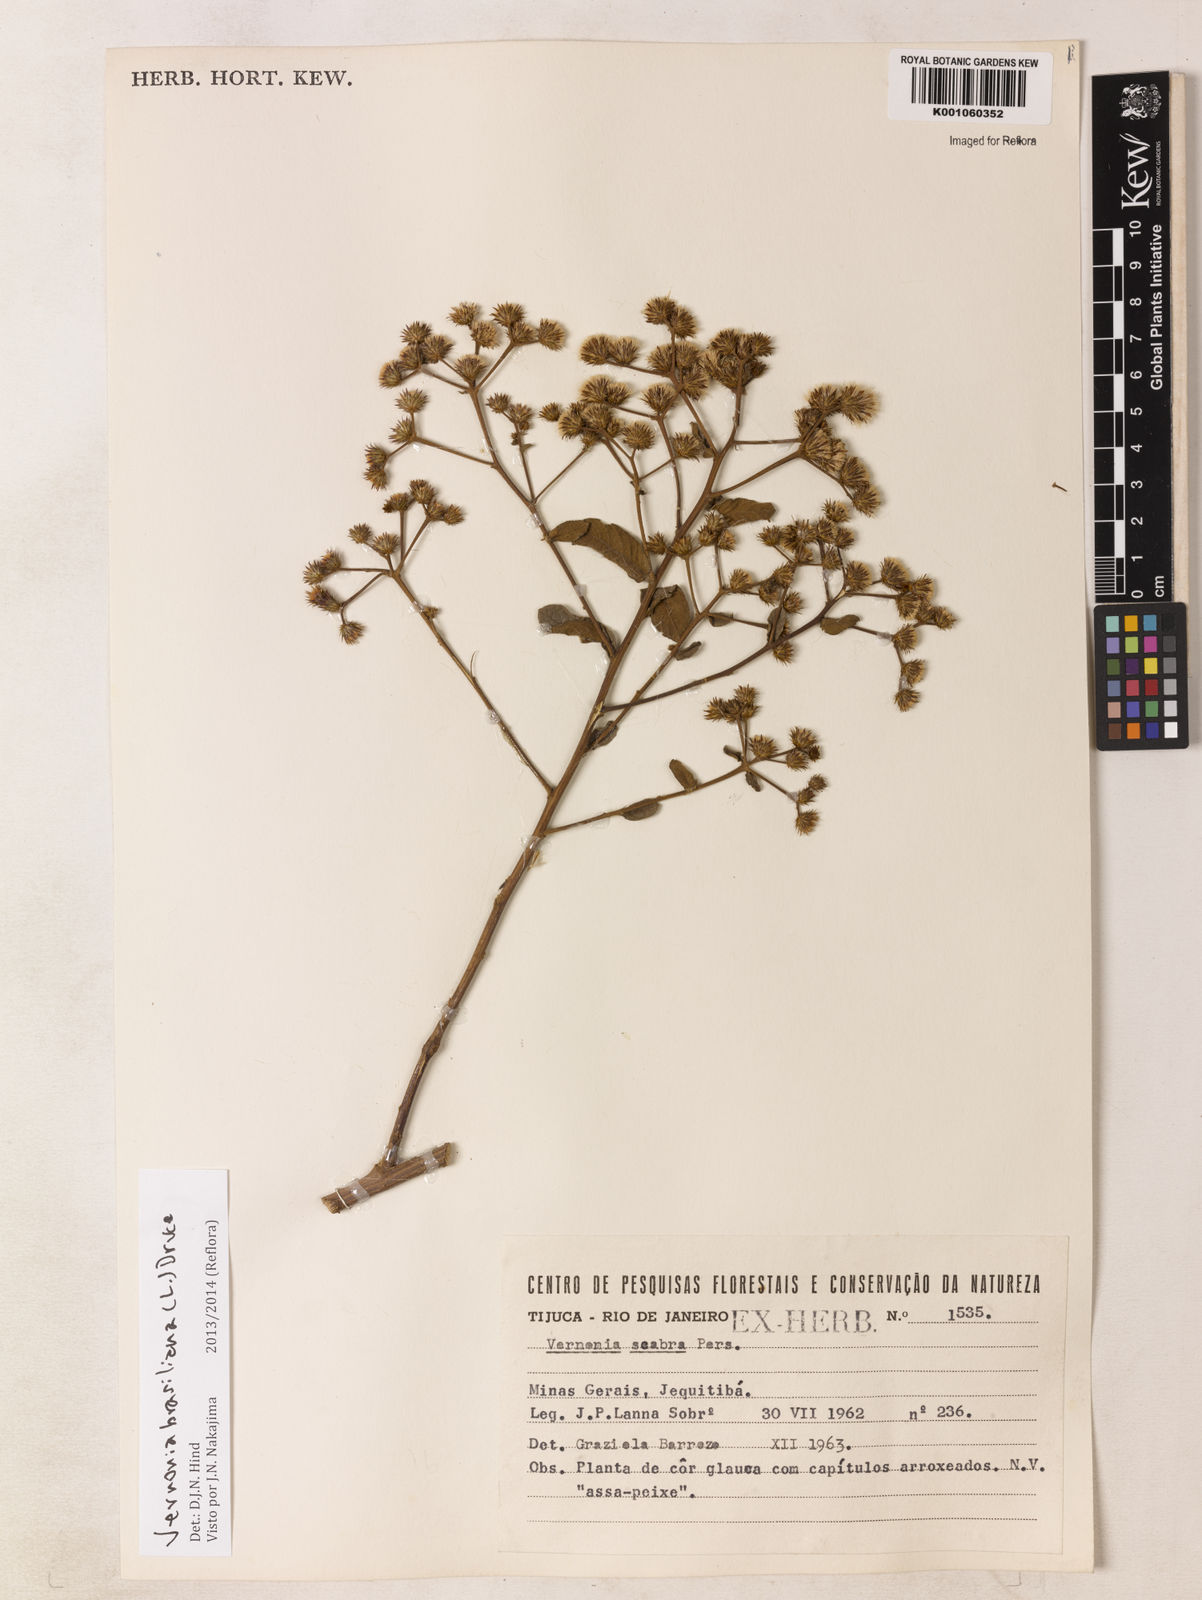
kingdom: Plantae
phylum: Tracheophyta
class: Magnoliopsida
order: Asterales
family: Asteraceae
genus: Vernonanthura
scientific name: Vernonanthura brasiliana
